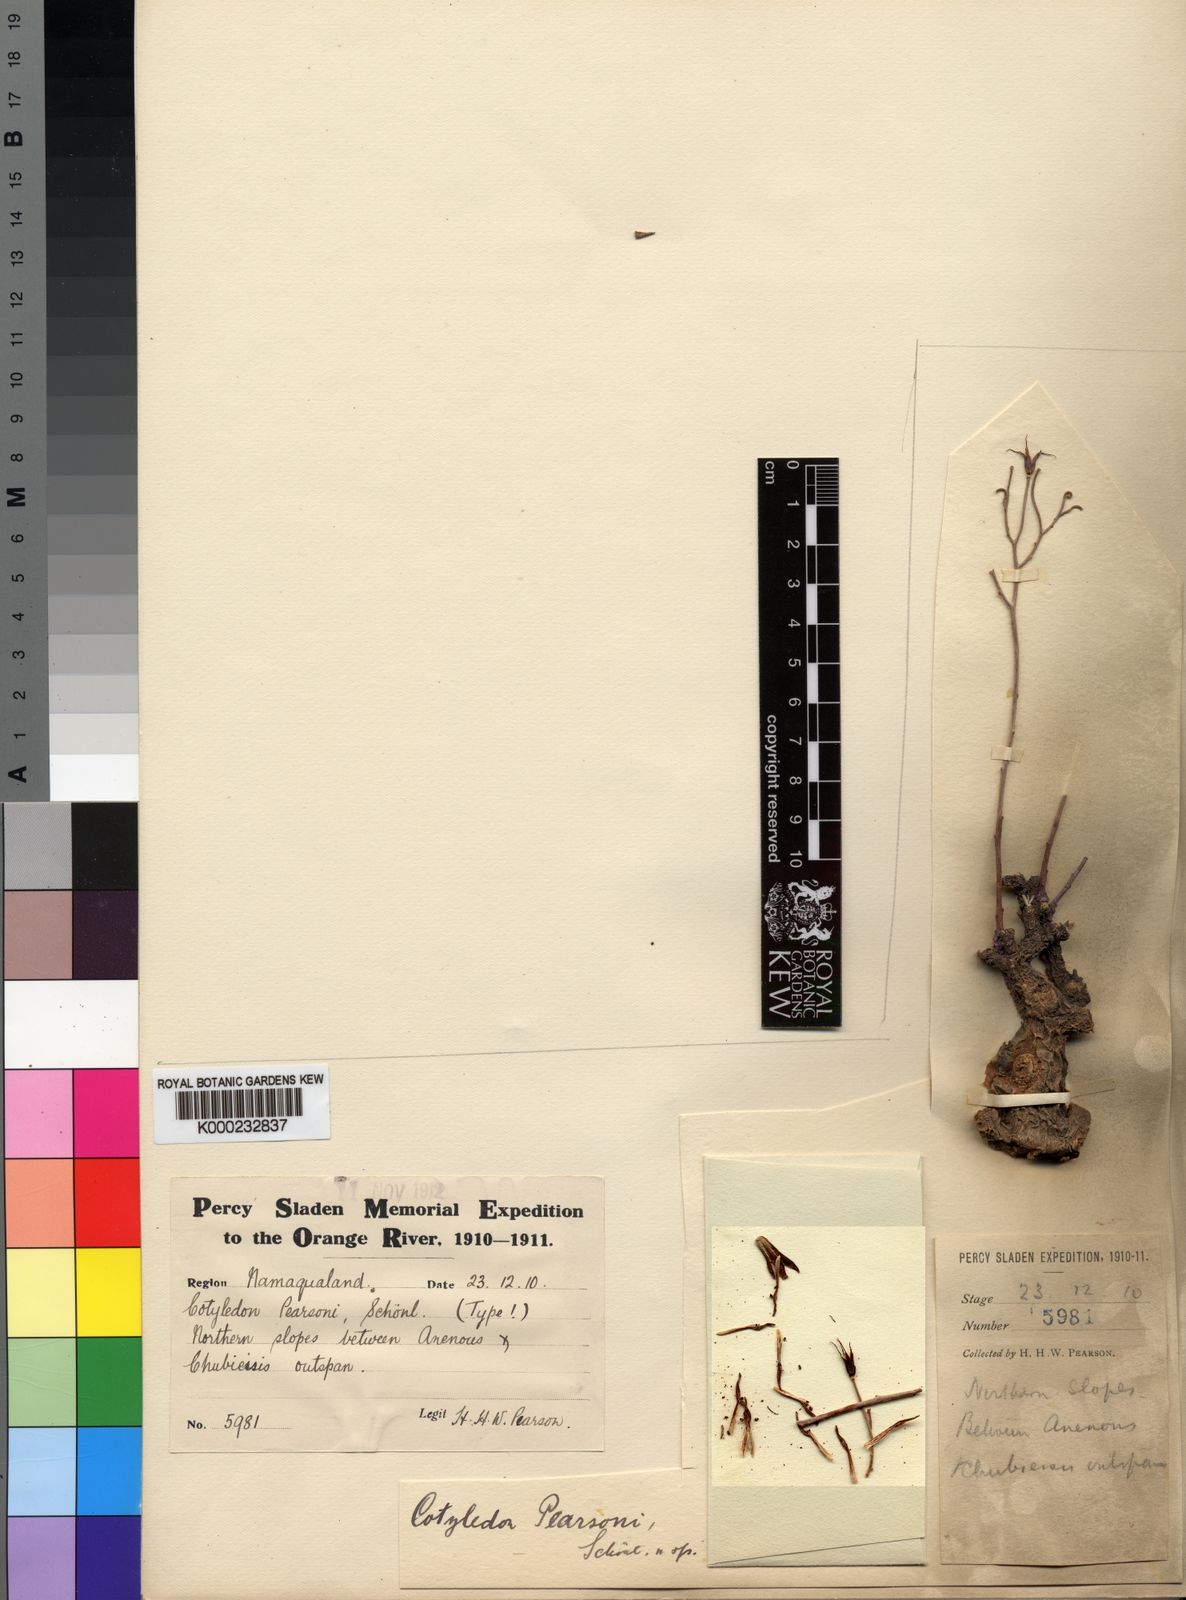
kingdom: Plantae
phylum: Tracheophyta
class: Magnoliopsida
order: Saxifragales
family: Crassulaceae
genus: Tylecodon
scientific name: Tylecodon
